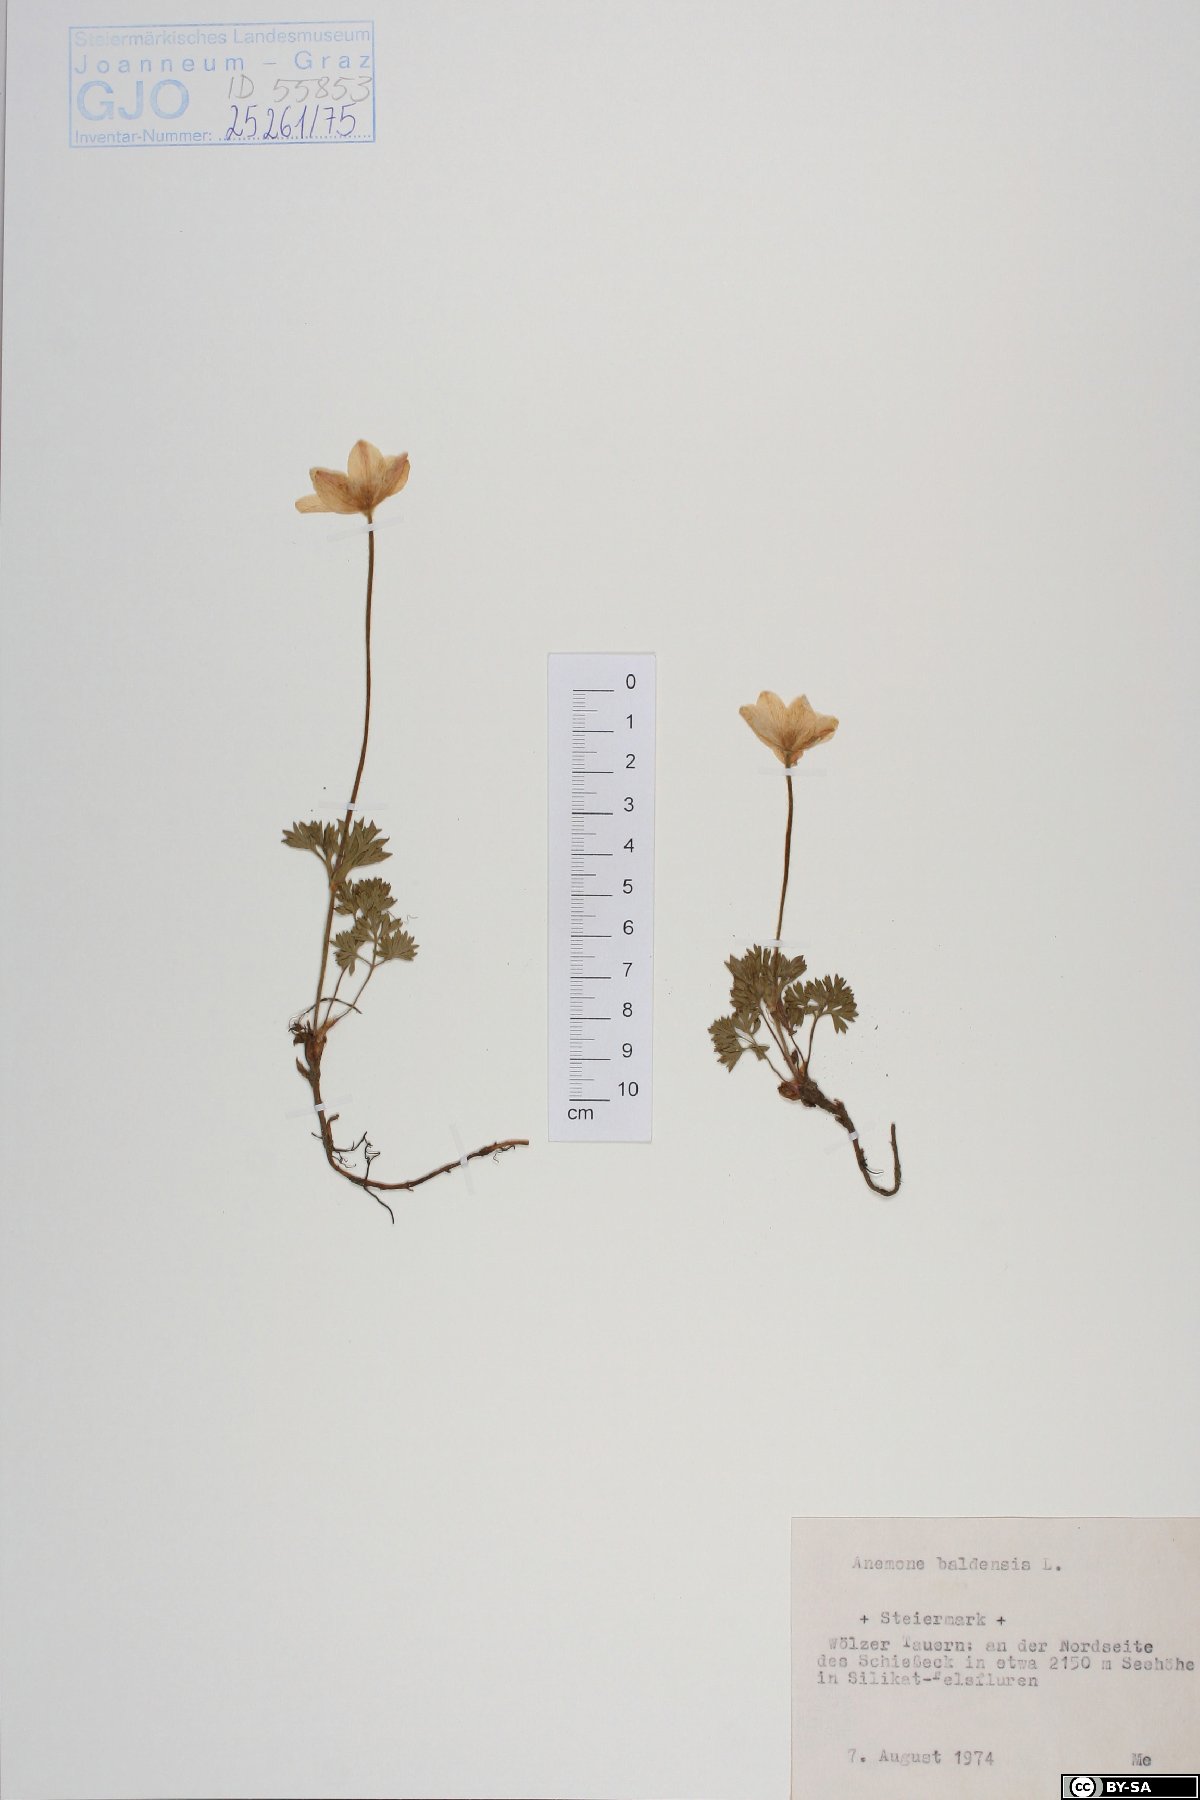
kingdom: Plantae
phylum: Tracheophyta
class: Magnoliopsida
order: Ranunculales
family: Ranunculaceae
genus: Anemone
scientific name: Anemone baldensis
